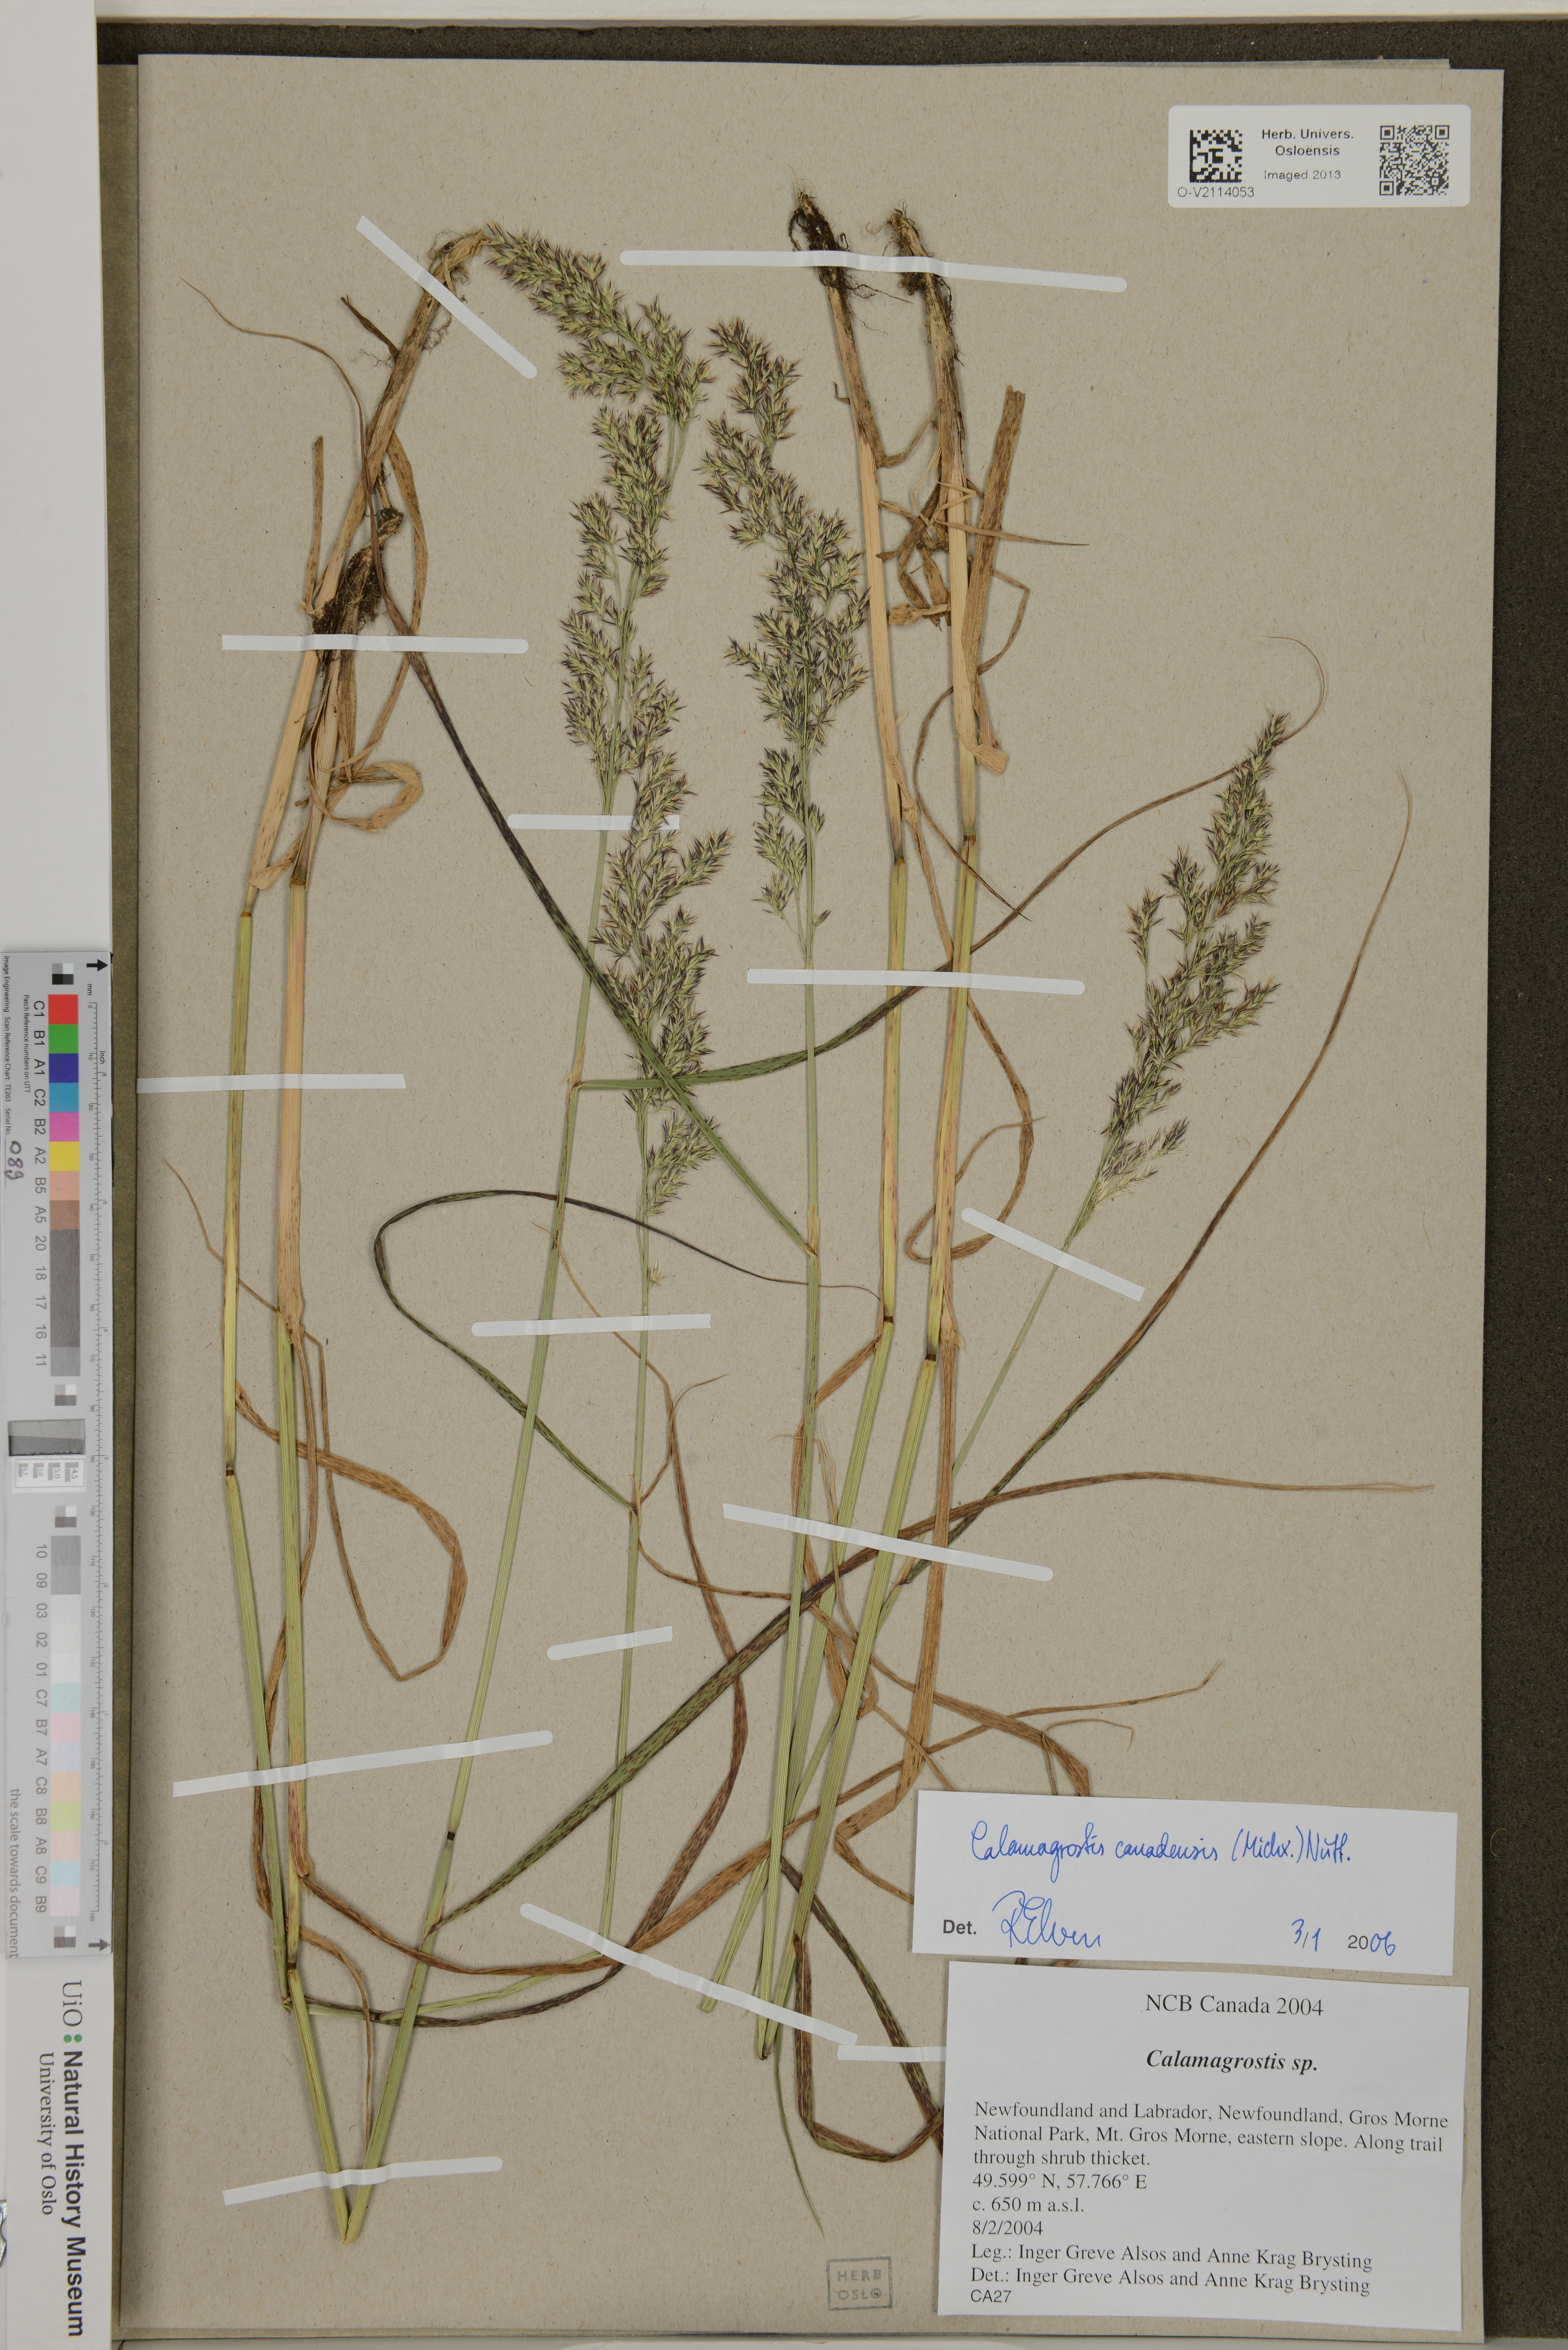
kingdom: Plantae
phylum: Tracheophyta
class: Liliopsida
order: Poales
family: Poaceae
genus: Calamagrostis
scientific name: Calamagrostis canadensis
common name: Canada bluejoint
